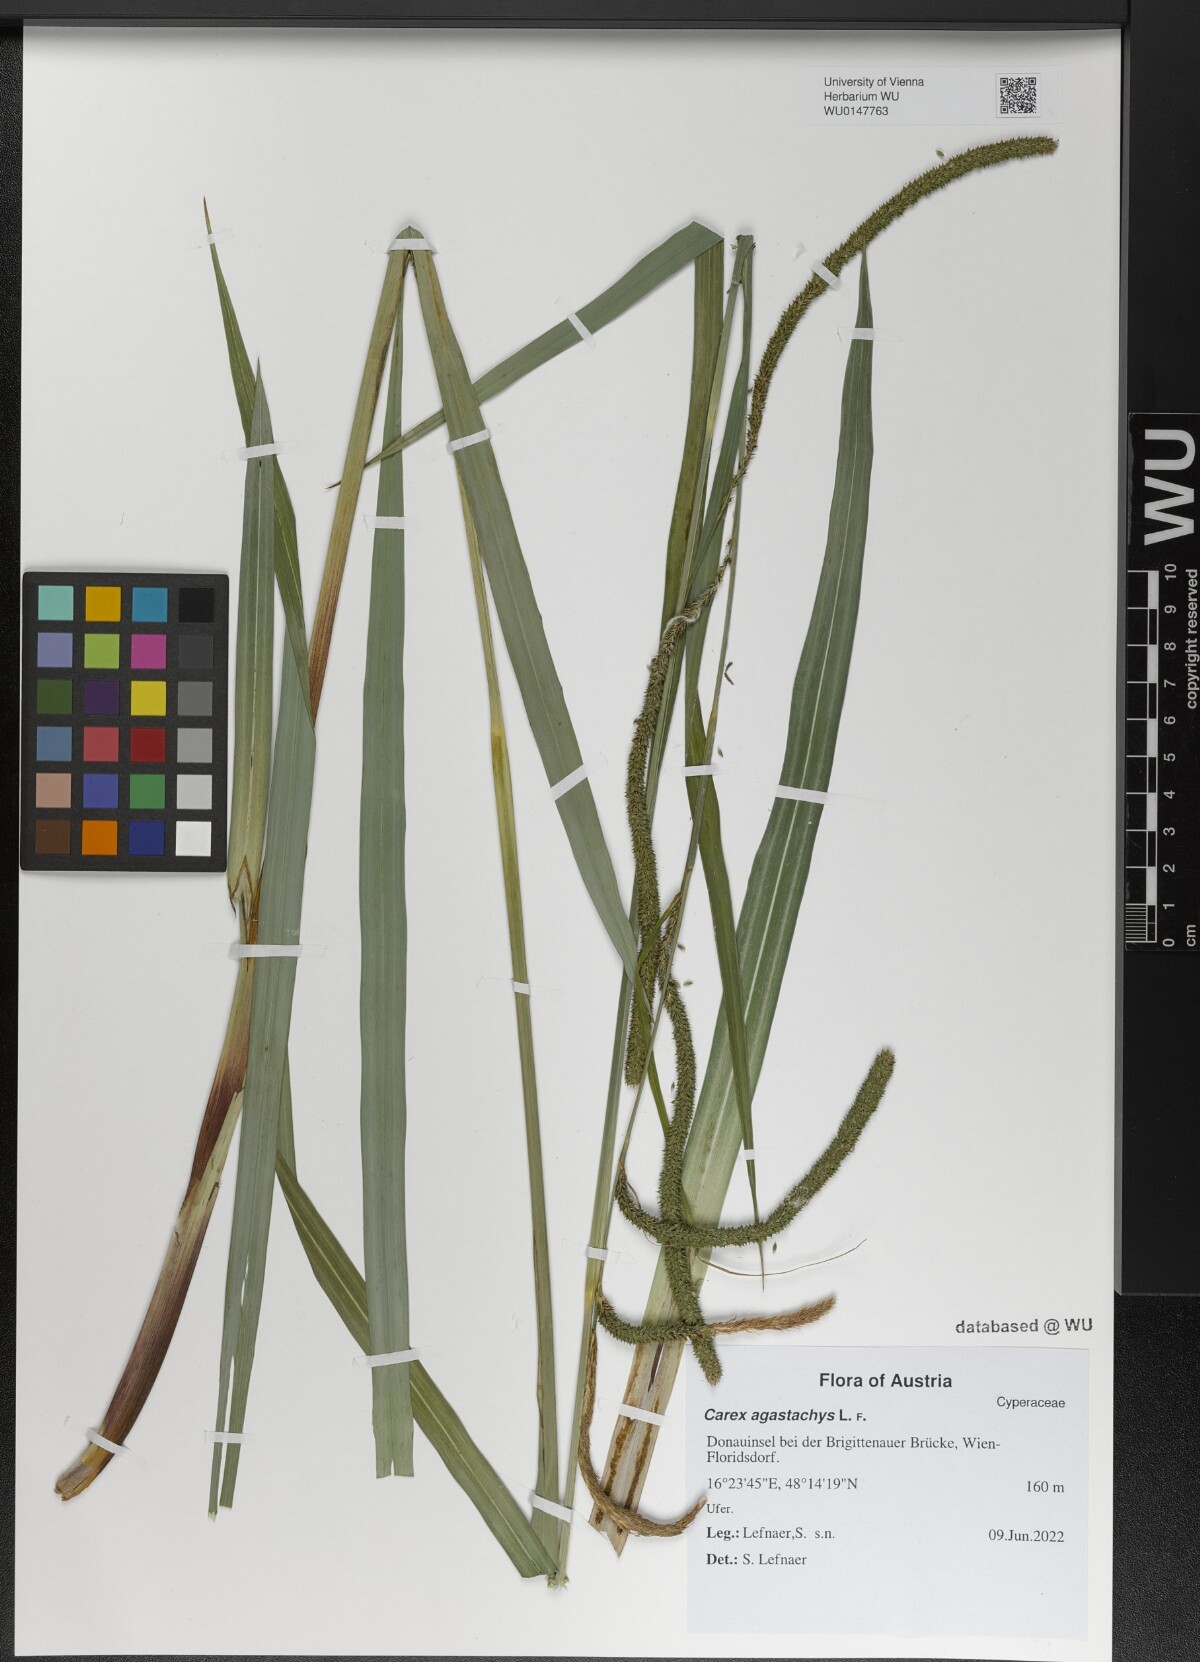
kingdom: Plantae
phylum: Tracheophyta
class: Liliopsida
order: Poales
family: Cyperaceae
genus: Carex
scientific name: Carex agastachys
